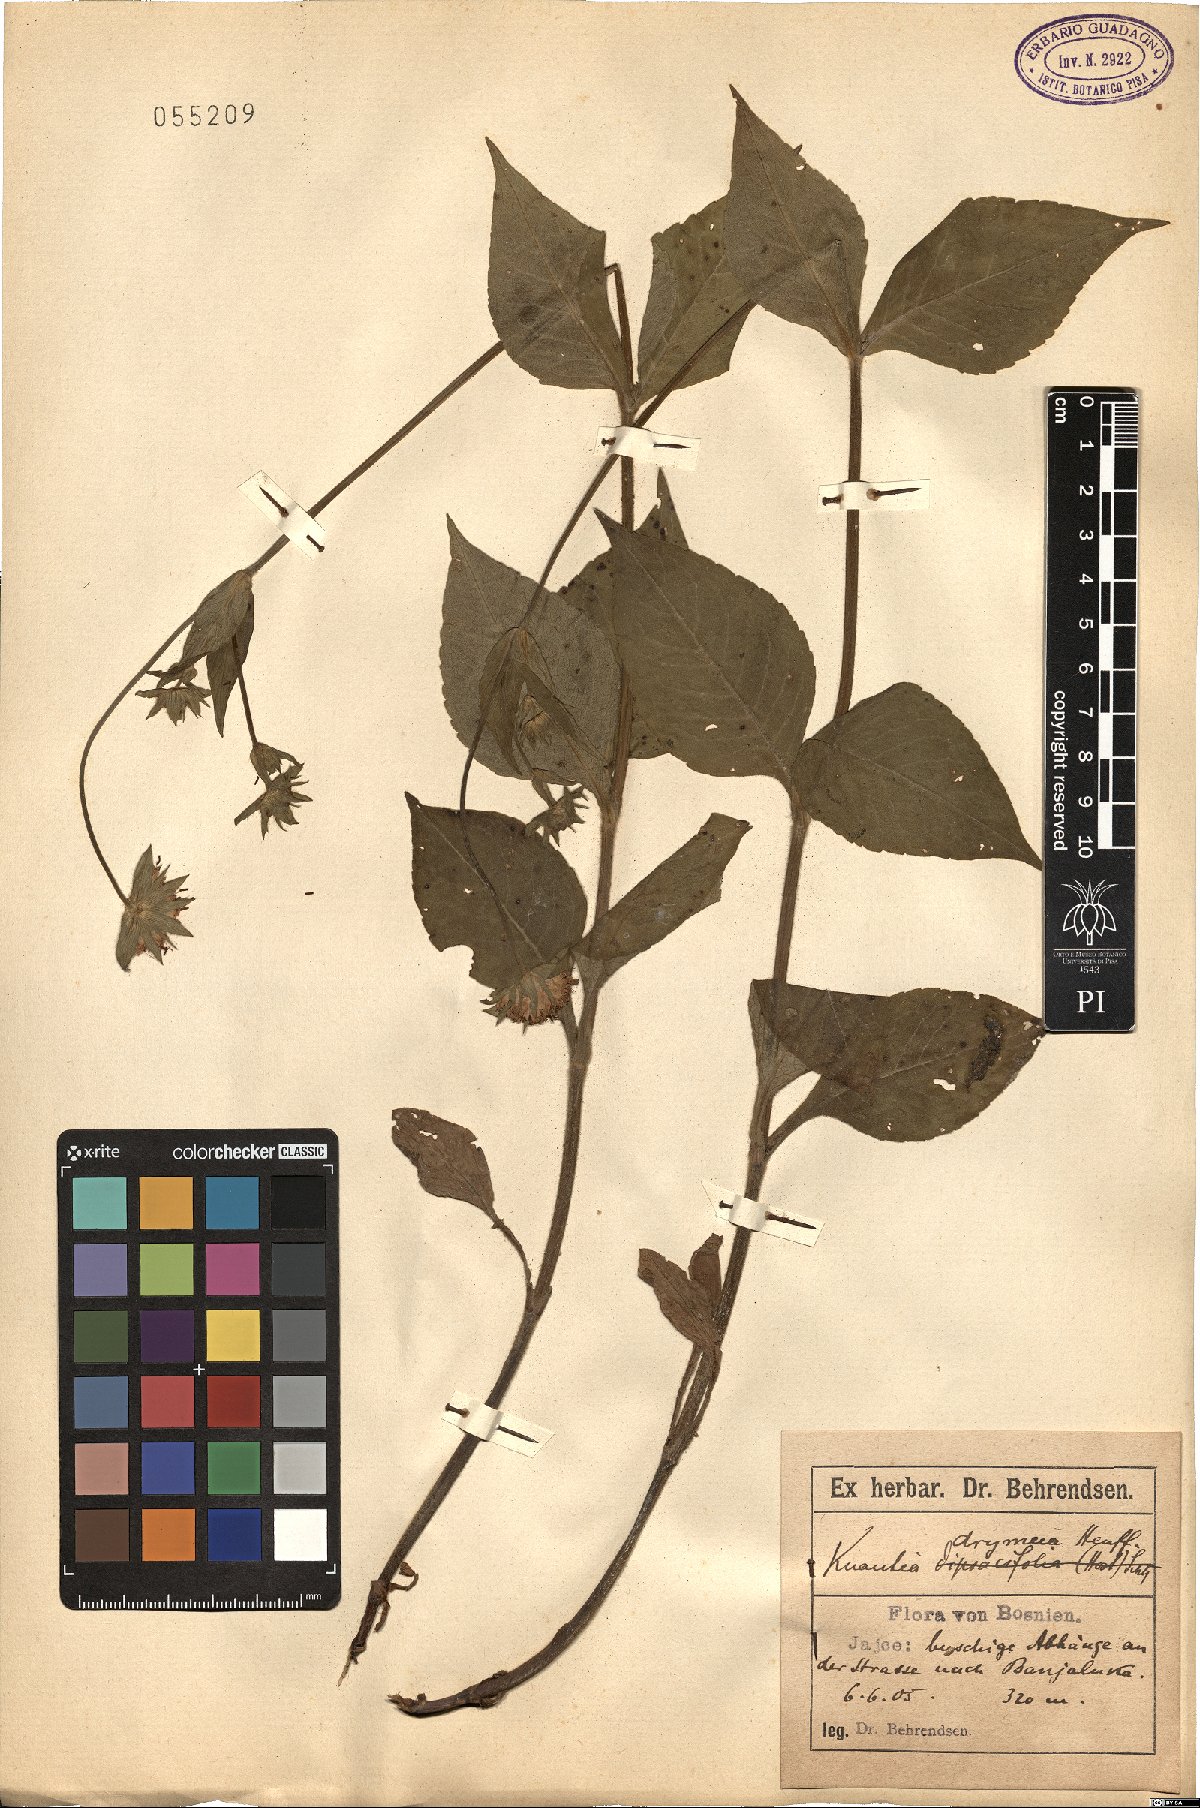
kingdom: Plantae
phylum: Tracheophyta
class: Magnoliopsida
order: Dipsacales
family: Caprifoliaceae
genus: Knautia
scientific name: Knautia drymeia
